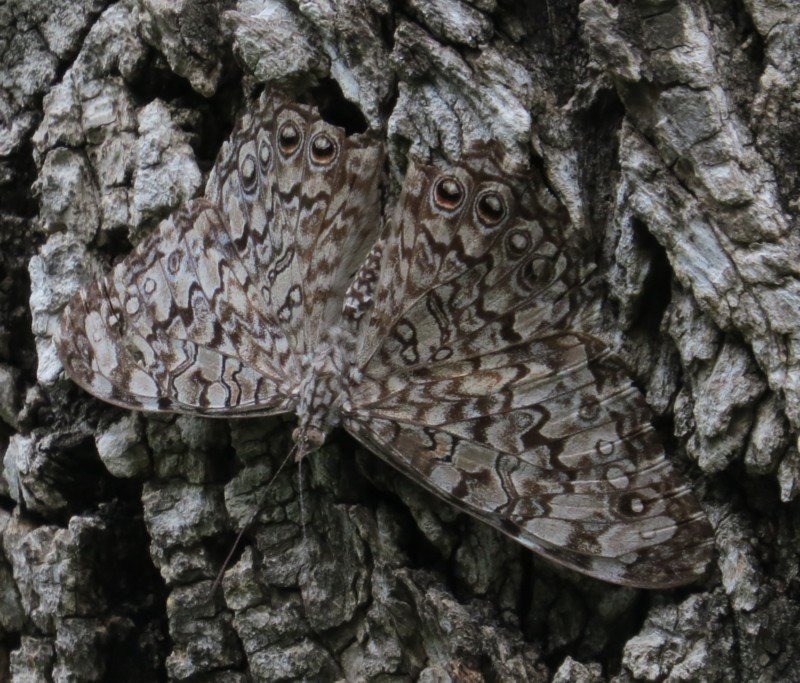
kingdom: Animalia
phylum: Arthropoda
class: Insecta
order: Lepidoptera
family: Nymphalidae
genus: Hamadryas
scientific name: Hamadryas februa
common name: Gray Cracker
